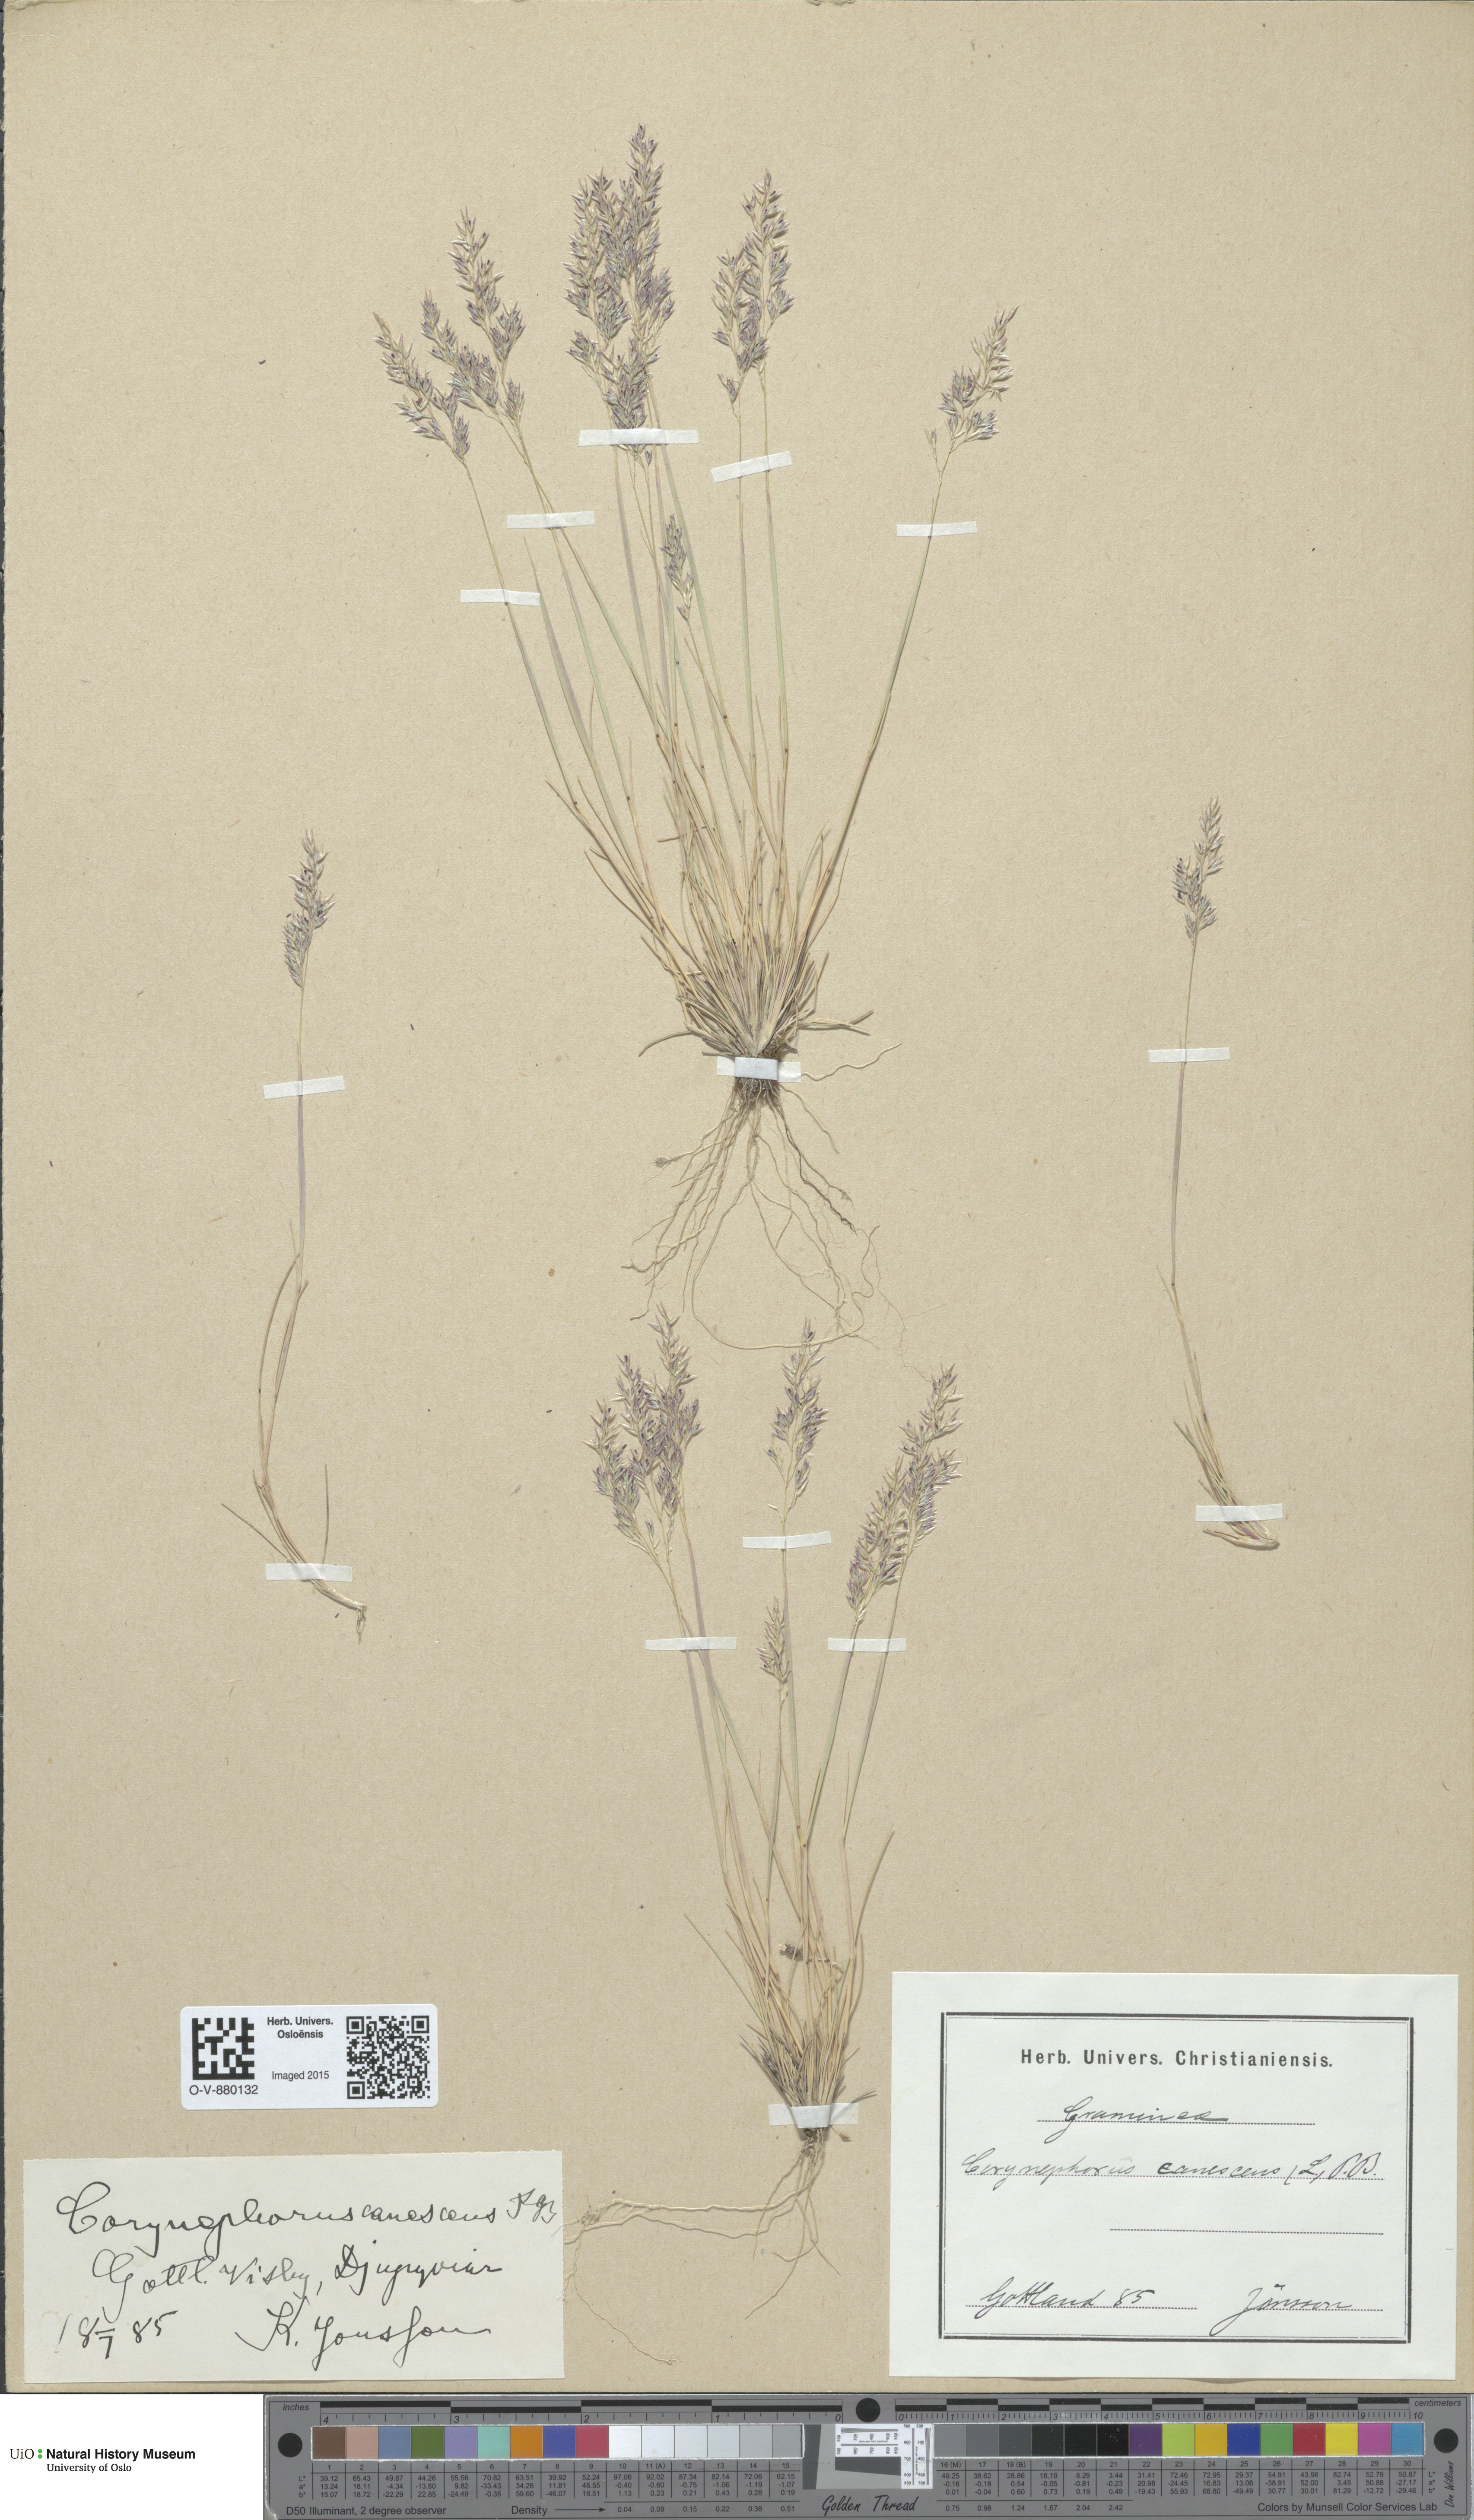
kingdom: Plantae
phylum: Tracheophyta
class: Liliopsida
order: Poales
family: Poaceae
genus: Corynephorus
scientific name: Corynephorus canescens
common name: Grey hair-grass
